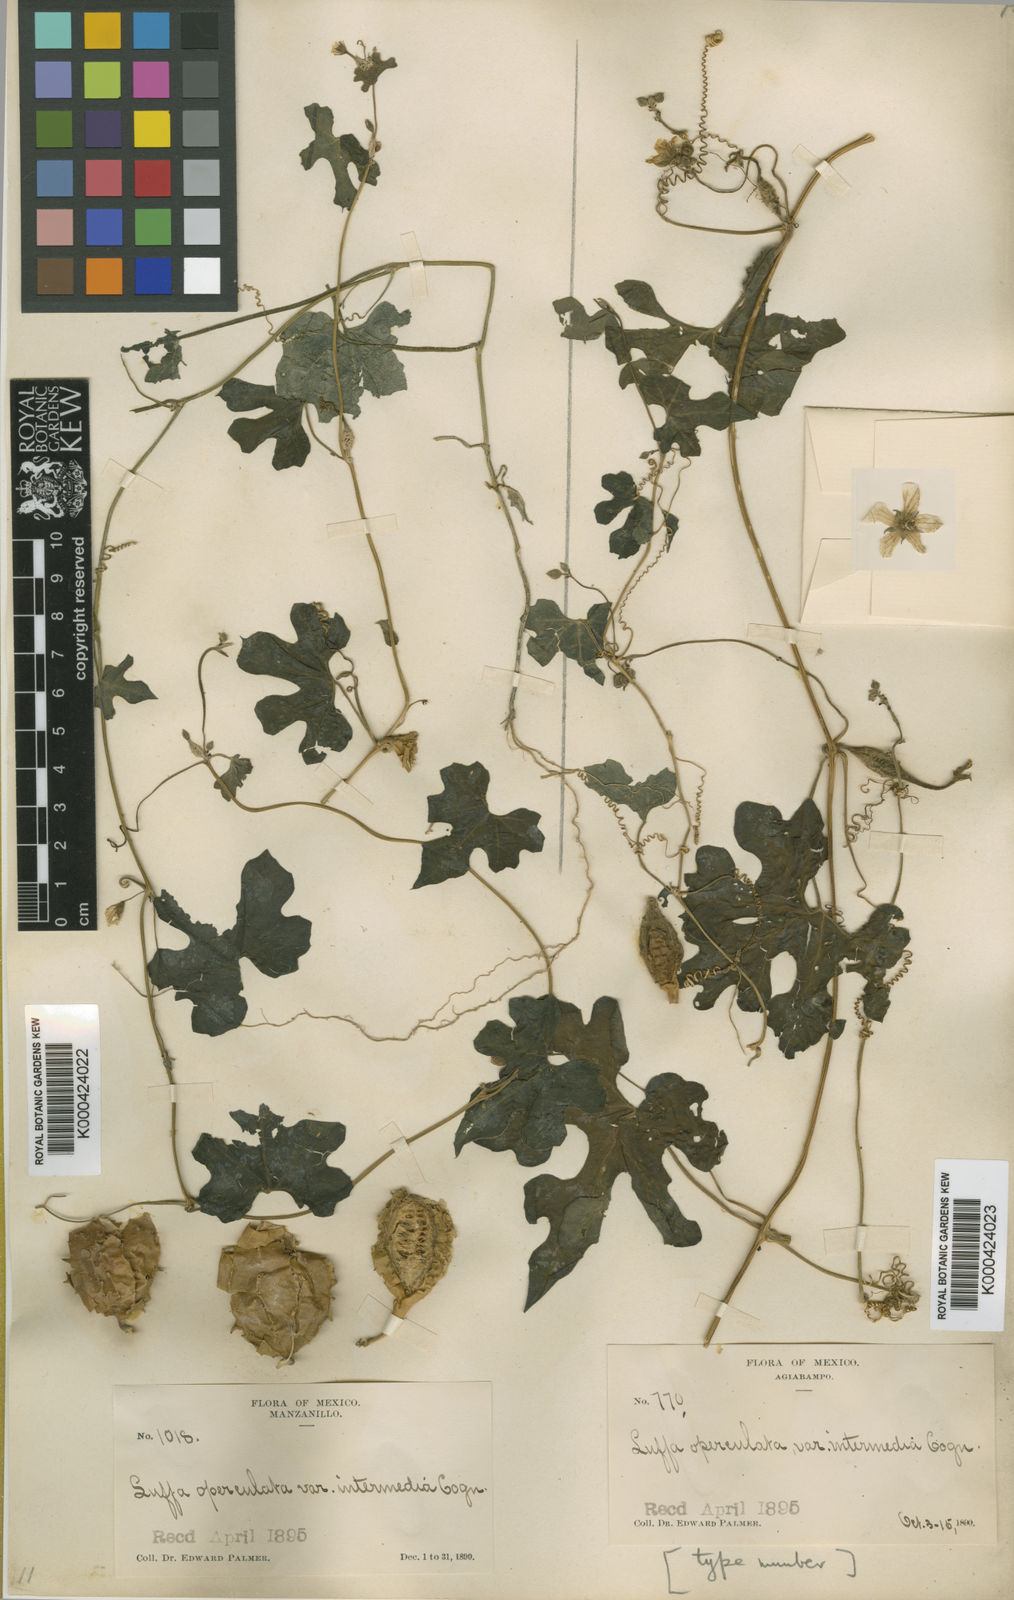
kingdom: Plantae
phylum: Tracheophyta
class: Magnoliopsida
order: Cucurbitales
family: Cucurbitaceae
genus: Luffa
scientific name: Luffa
